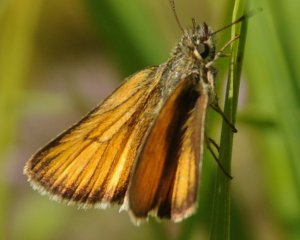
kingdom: Animalia
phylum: Arthropoda
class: Insecta
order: Lepidoptera
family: Hesperiidae
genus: Thymelicus
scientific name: Thymelicus lineola
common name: European Skipper
